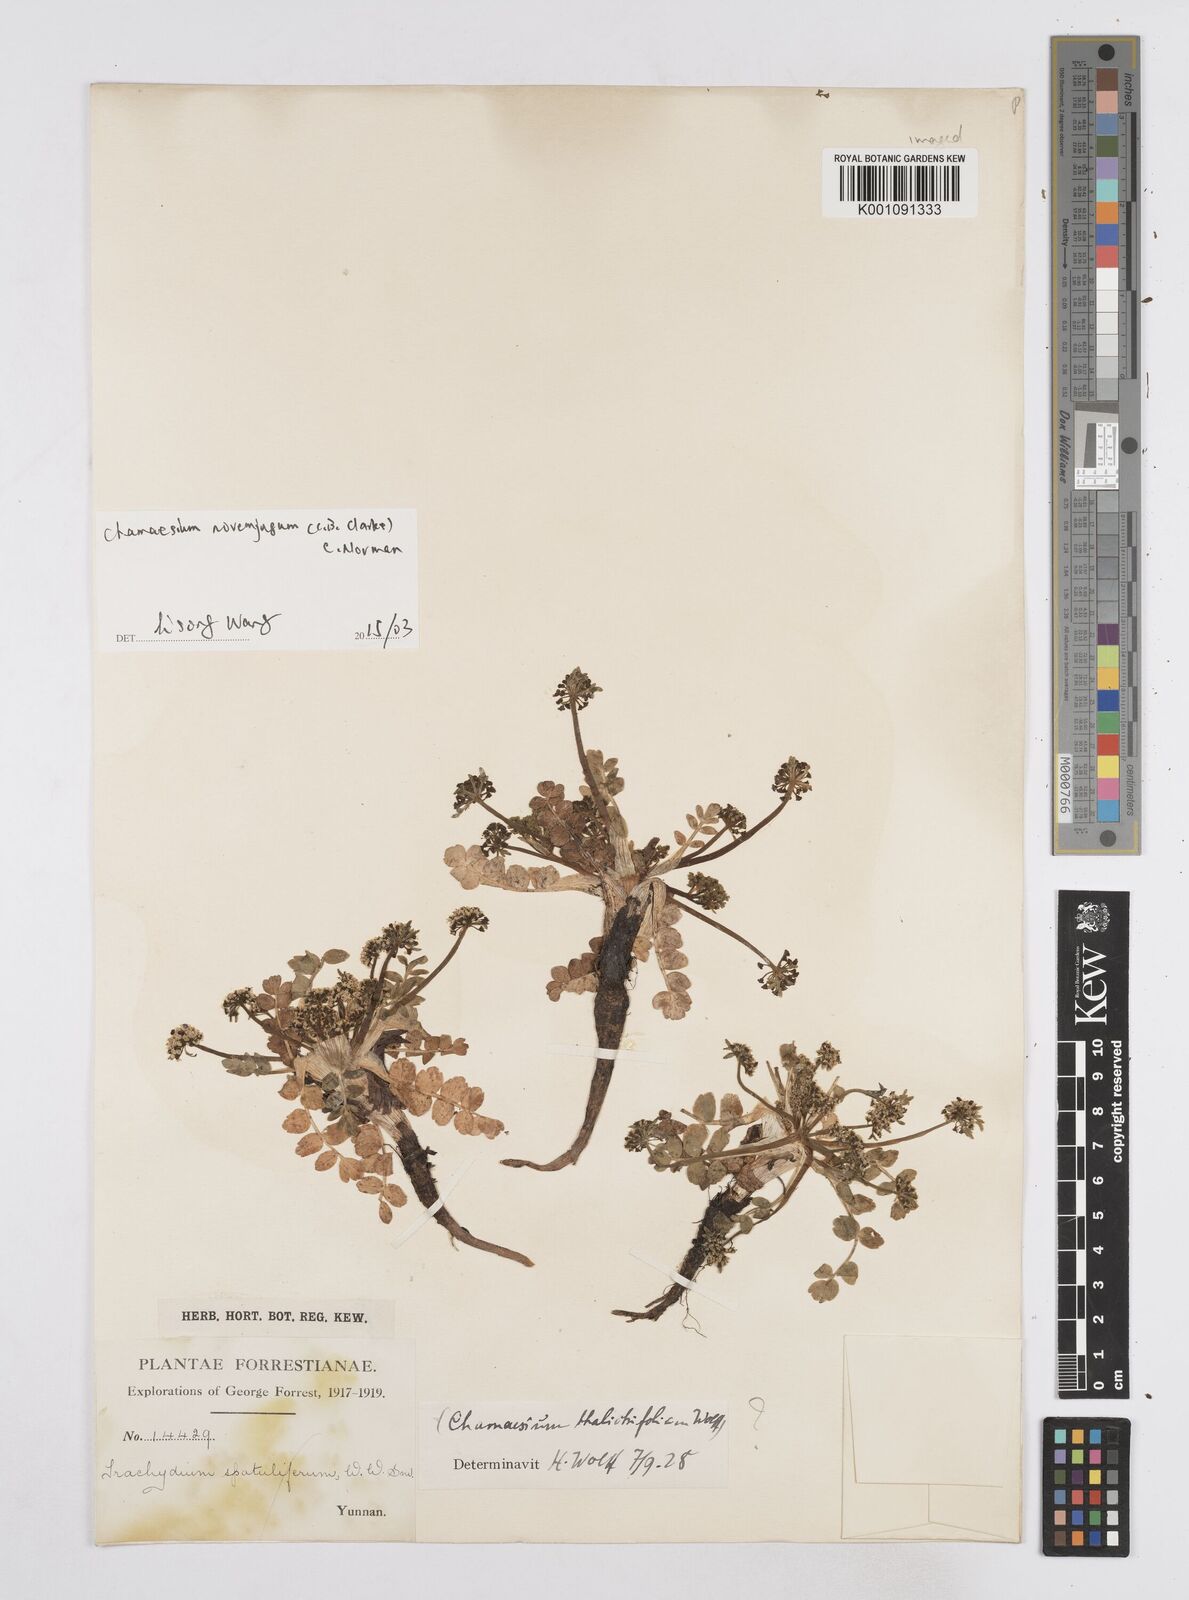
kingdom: Plantae
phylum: Tracheophyta
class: Magnoliopsida
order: Apiales
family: Apiaceae
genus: Chamaesium
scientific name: Chamaesium novem-jugum
